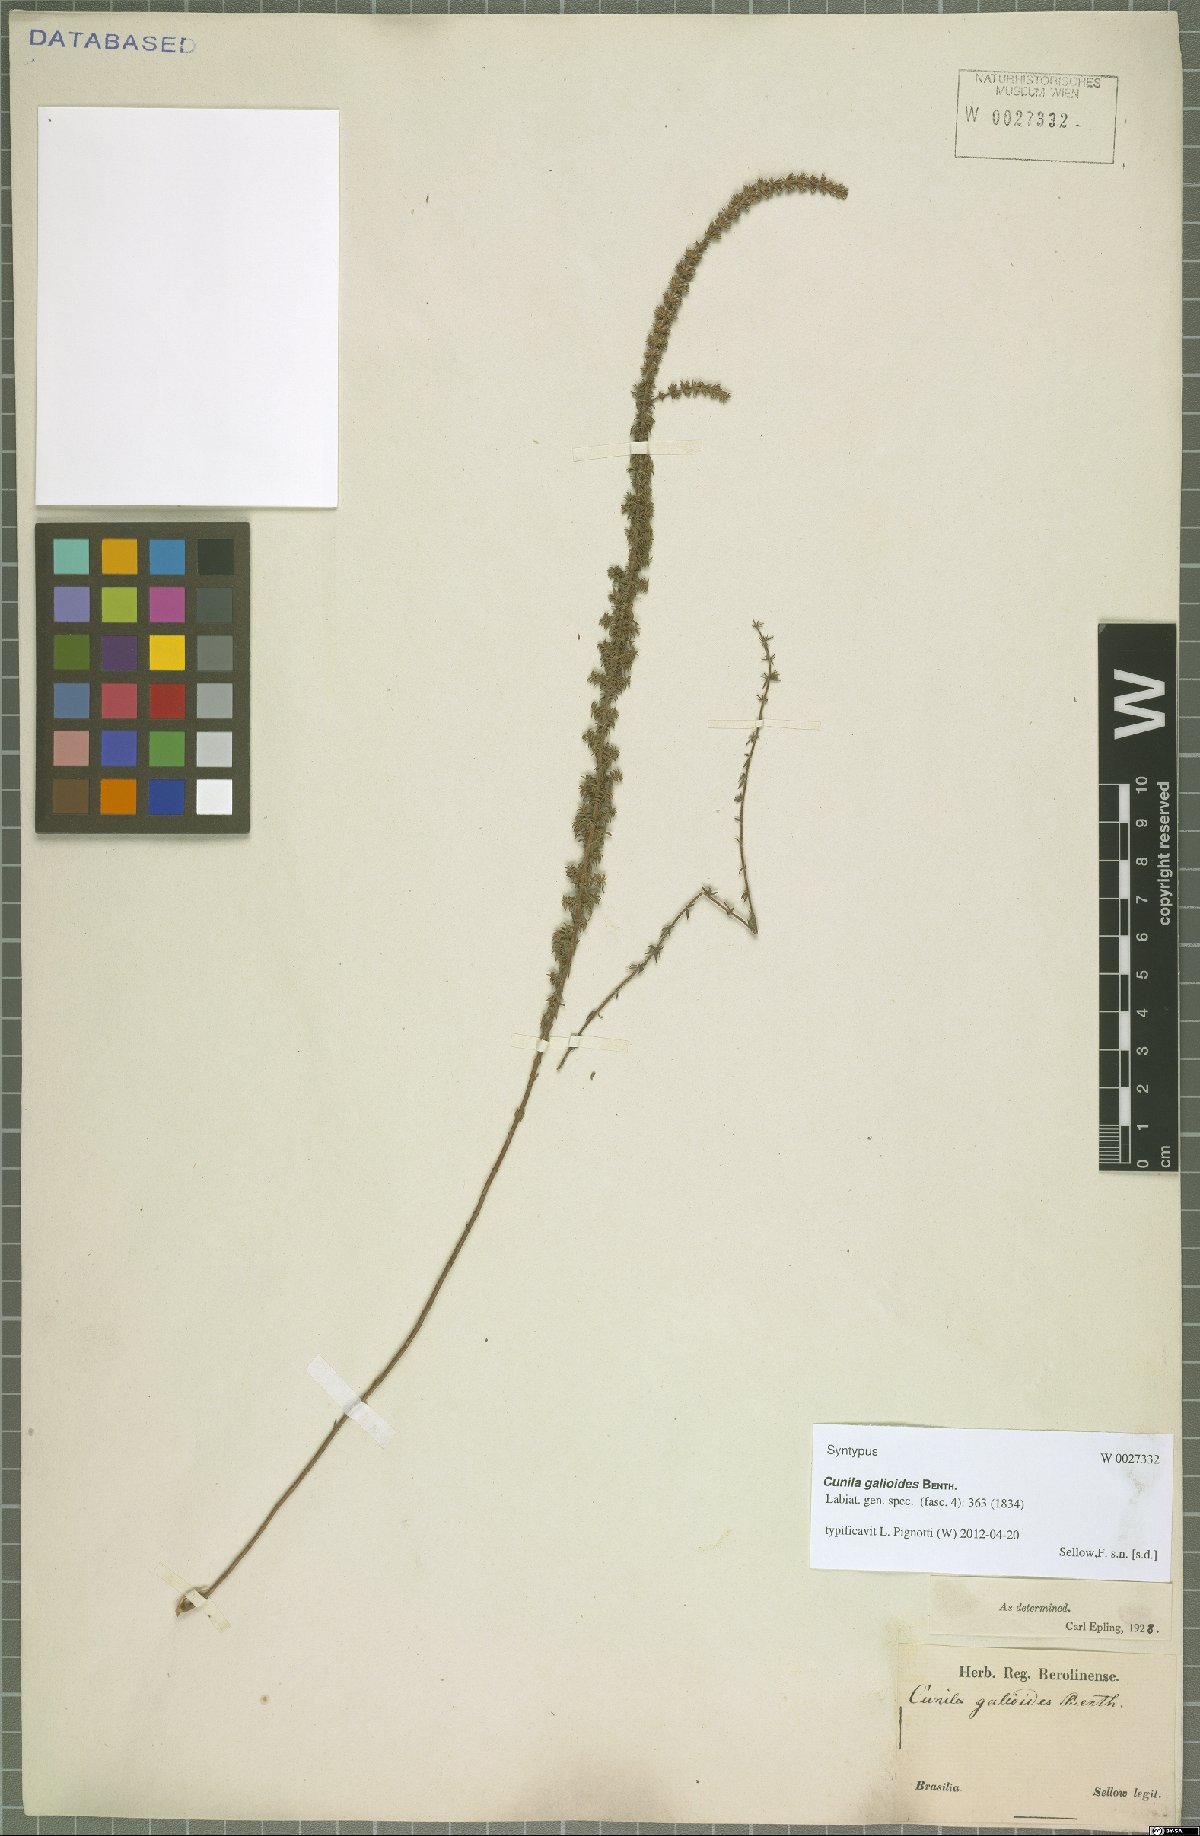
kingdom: Plantae
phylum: Tracheophyta
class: Magnoliopsida
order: Lamiales
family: Lamiaceae
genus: Cunila
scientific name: Cunila galioides
